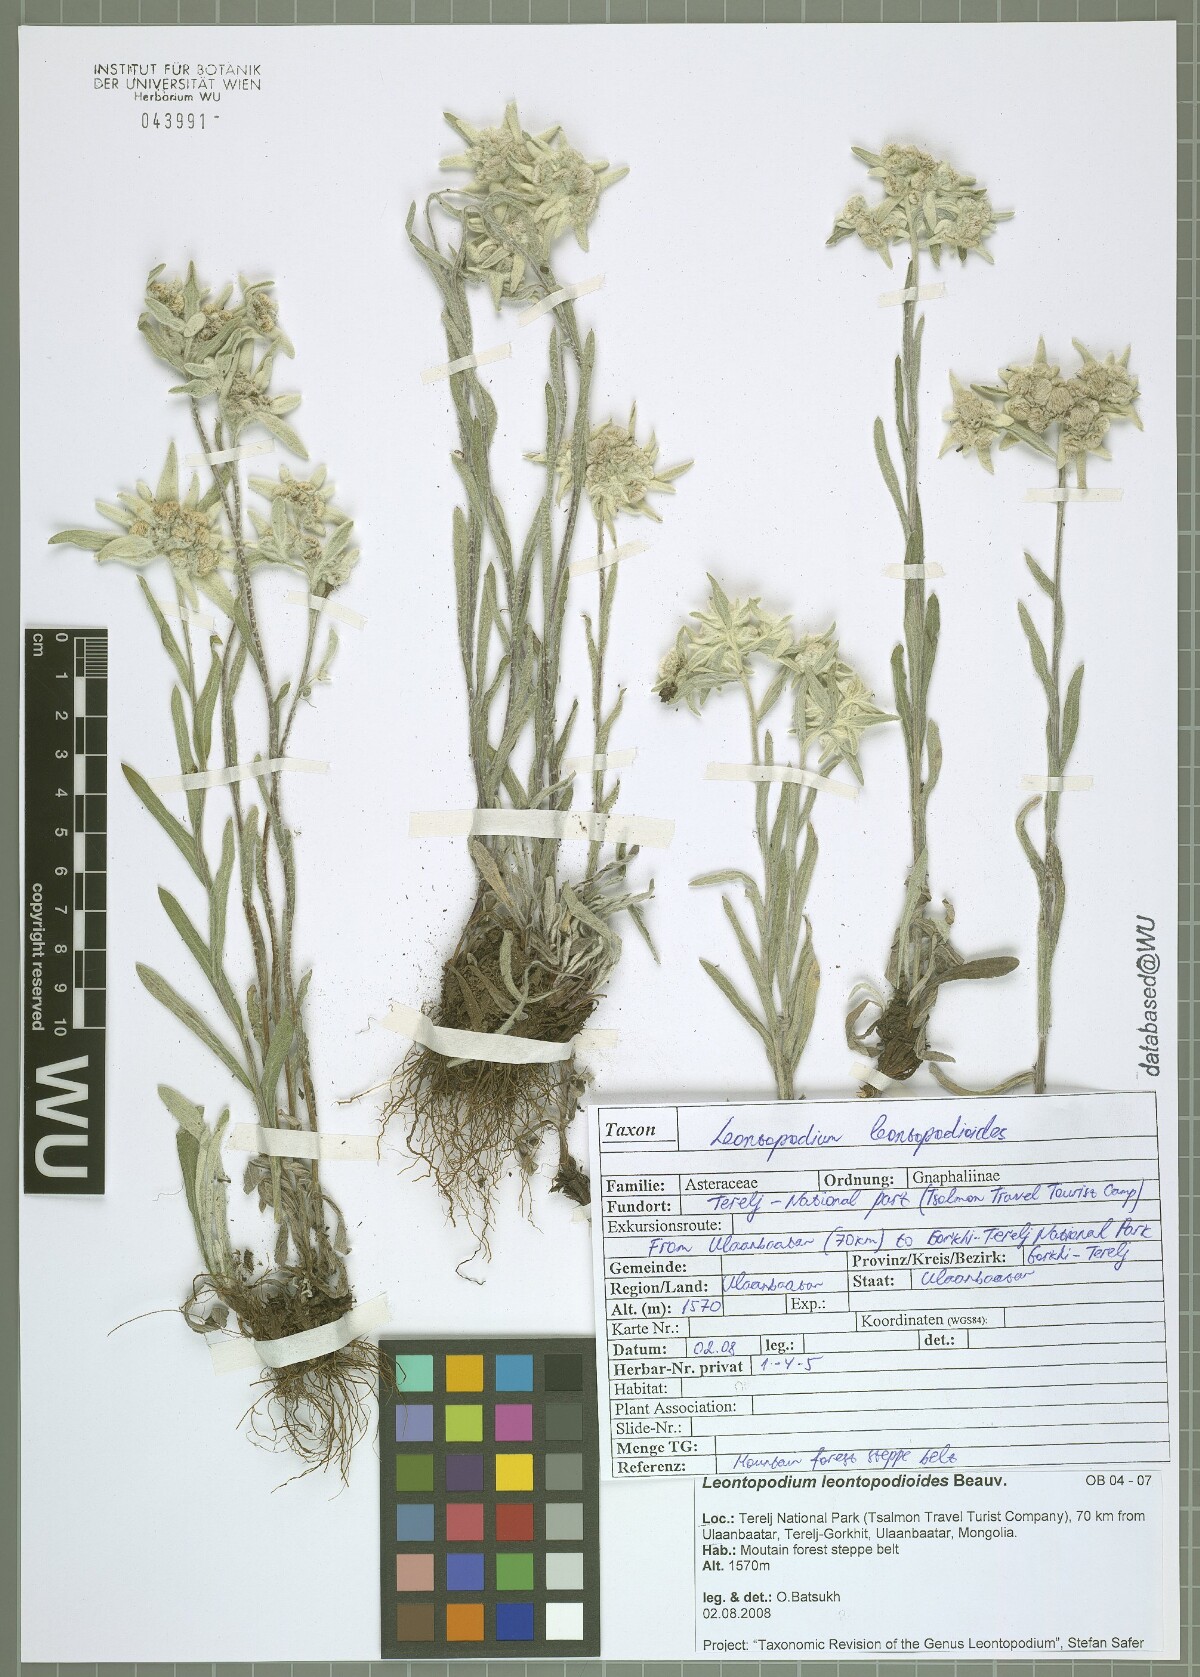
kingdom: Plantae
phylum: Tracheophyta
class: Magnoliopsida
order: Asterales
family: Asteraceae
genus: Leontopodium
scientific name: Leontopodium leontopodioides
